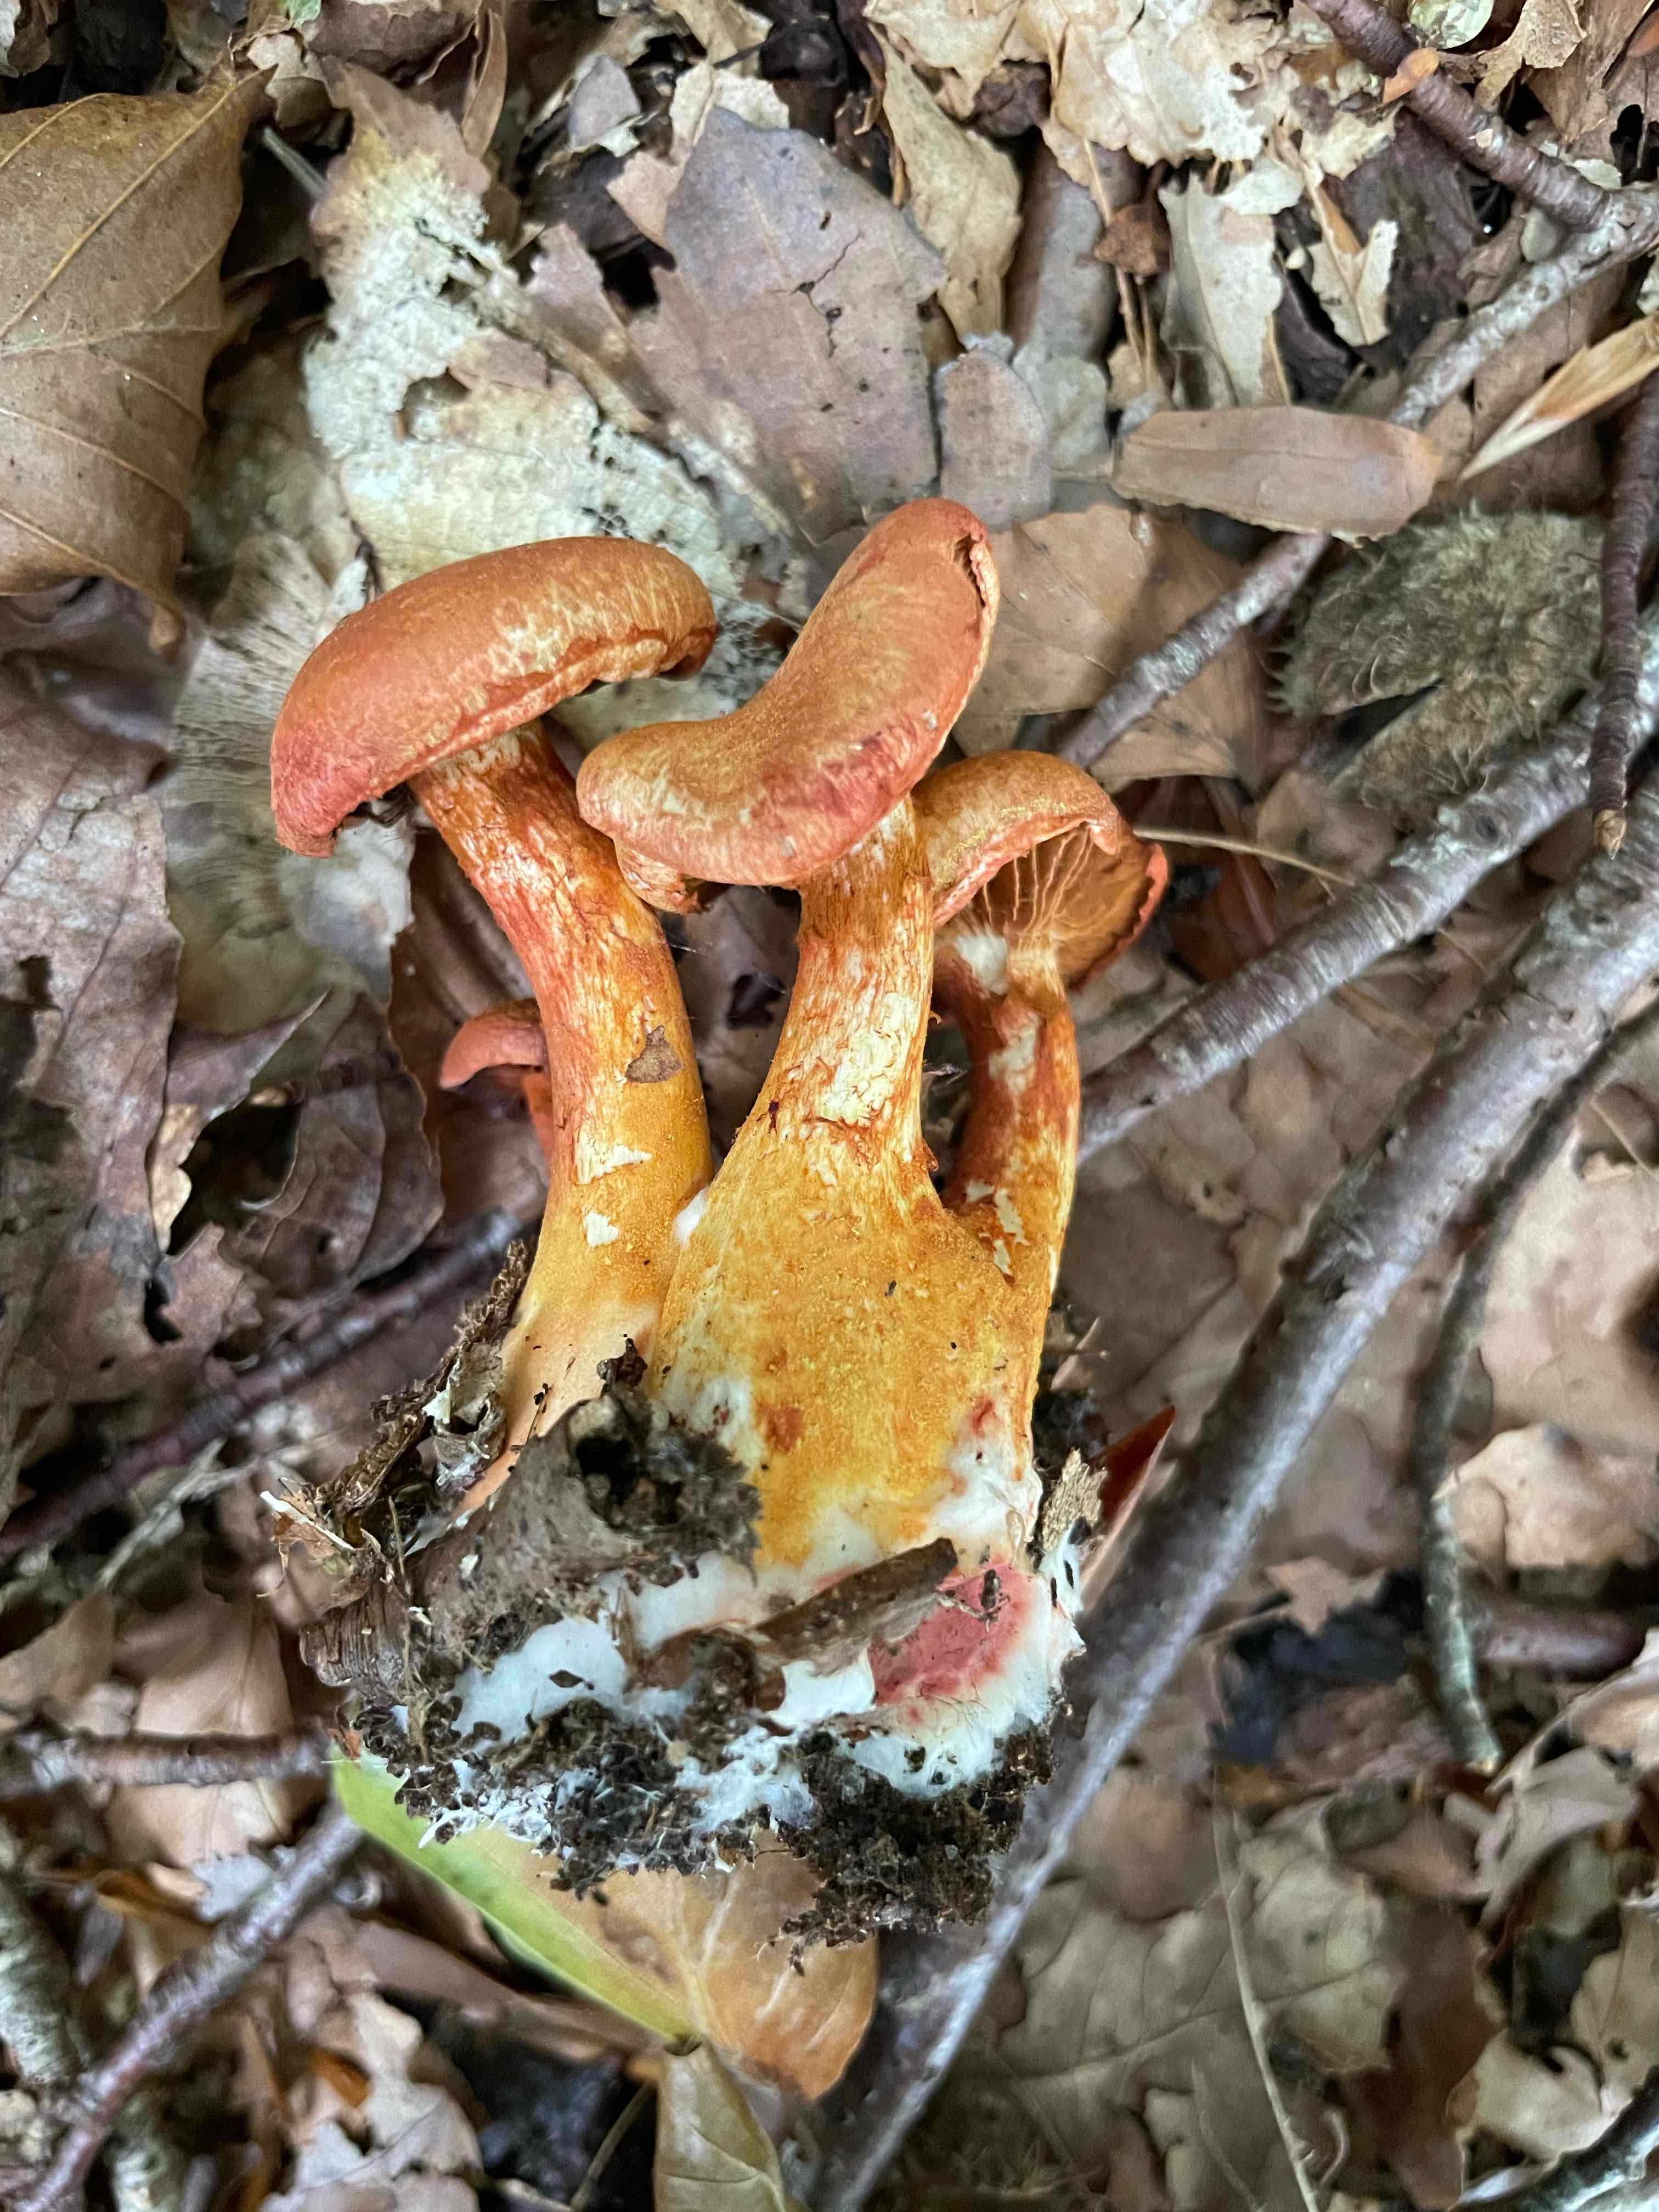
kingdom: Fungi
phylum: Basidiomycota
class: Agaricomycetes
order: Agaricales
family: Cortinariaceae
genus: Cortinarius
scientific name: Cortinarius bolaris
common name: cinnoberskællet slørhat
